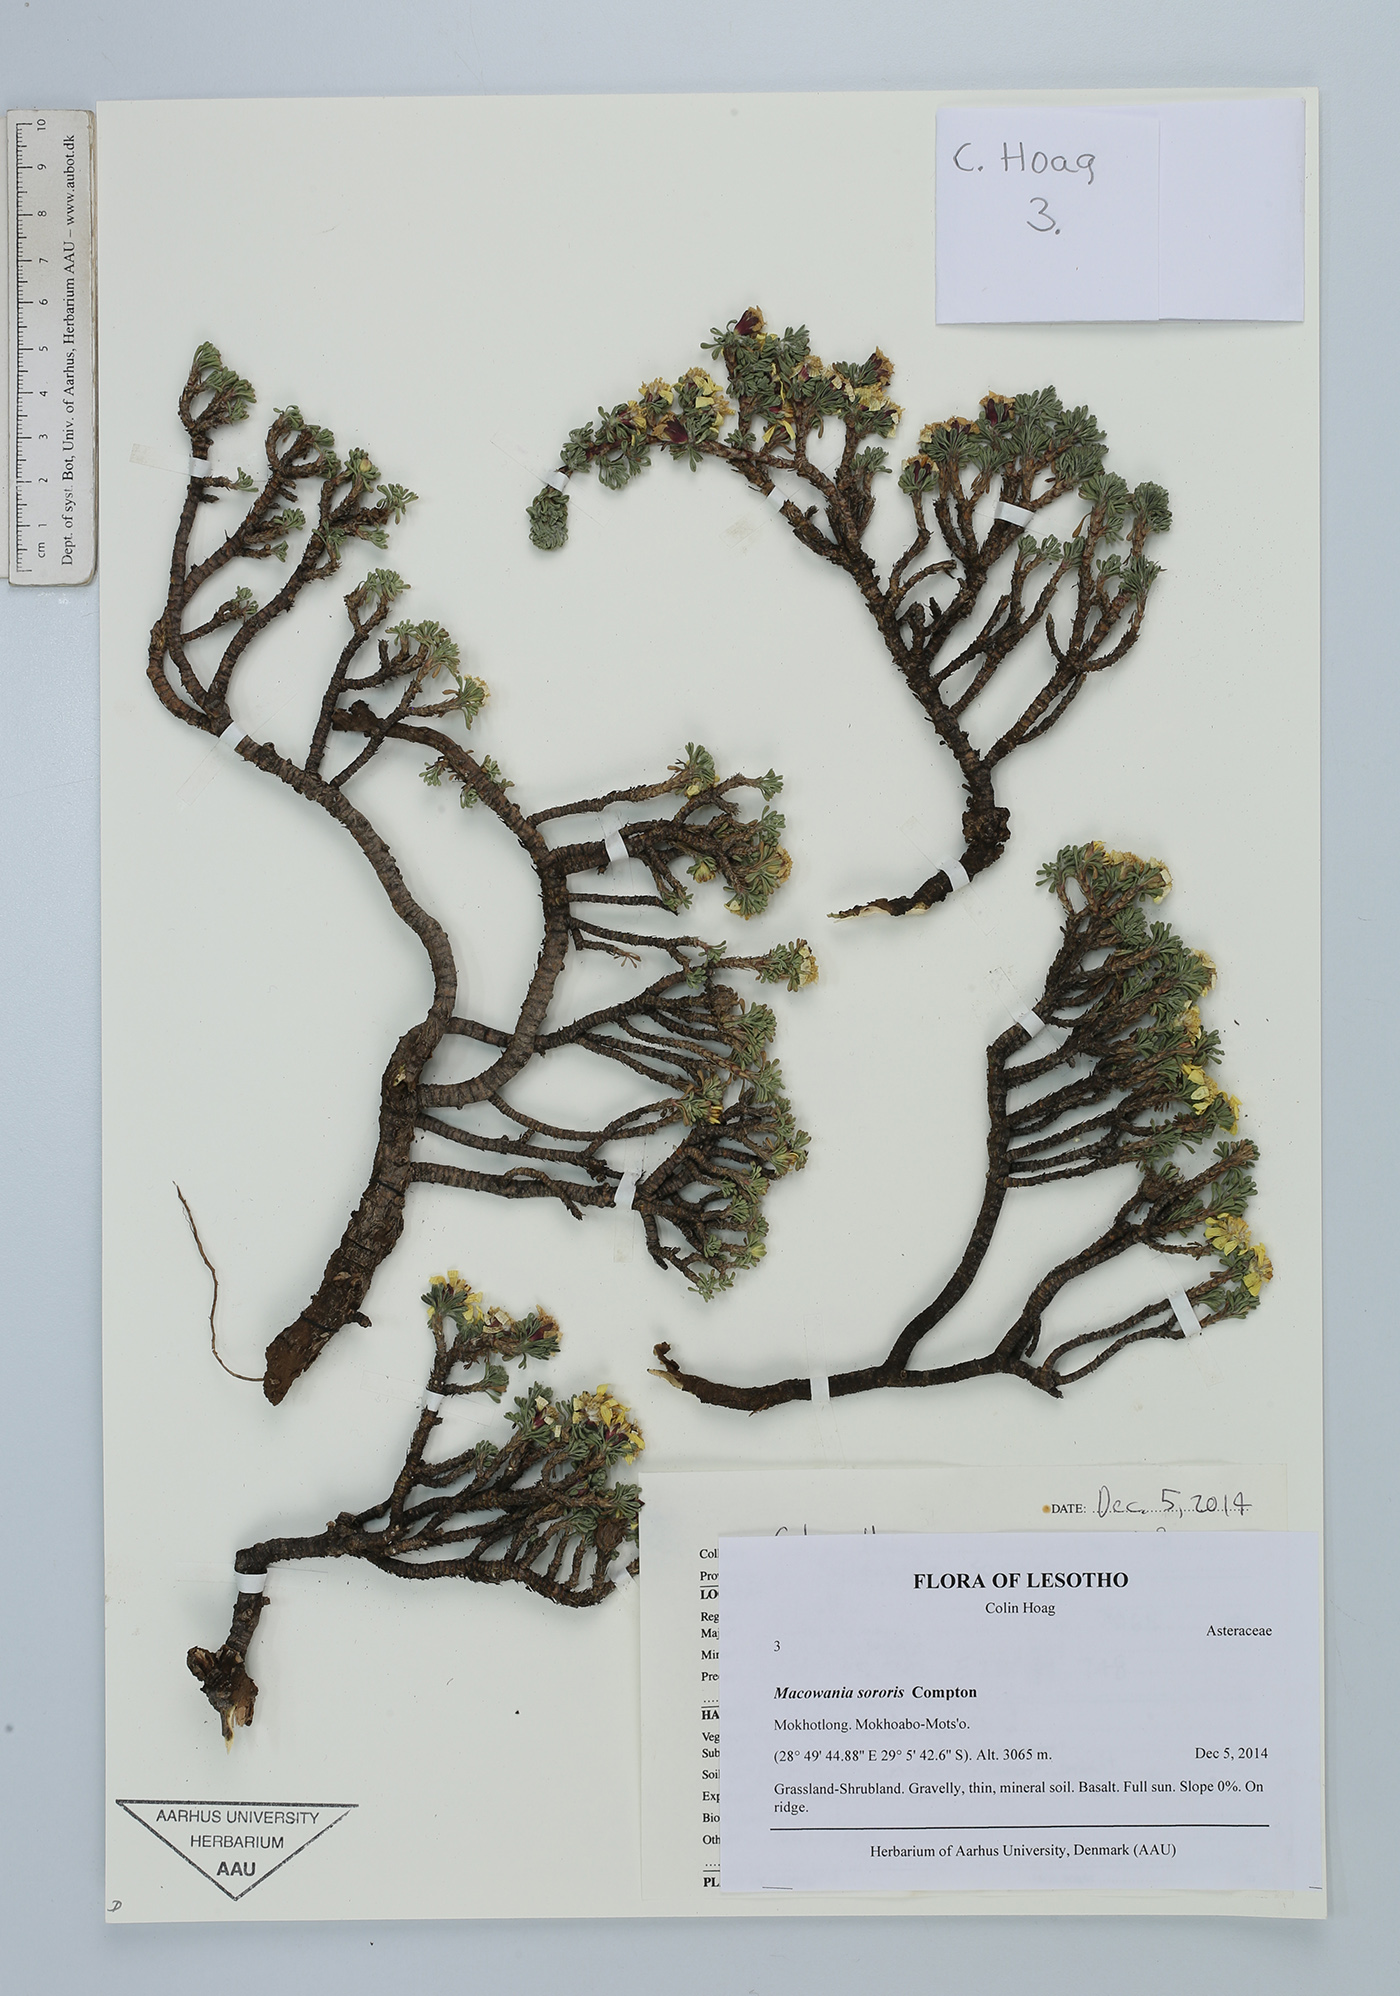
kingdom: Plantae
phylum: Tracheophyta
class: Magnoliopsida
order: Asterales
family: Asteraceae
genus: Arrowsmithia
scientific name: Arrowsmithia sororis
